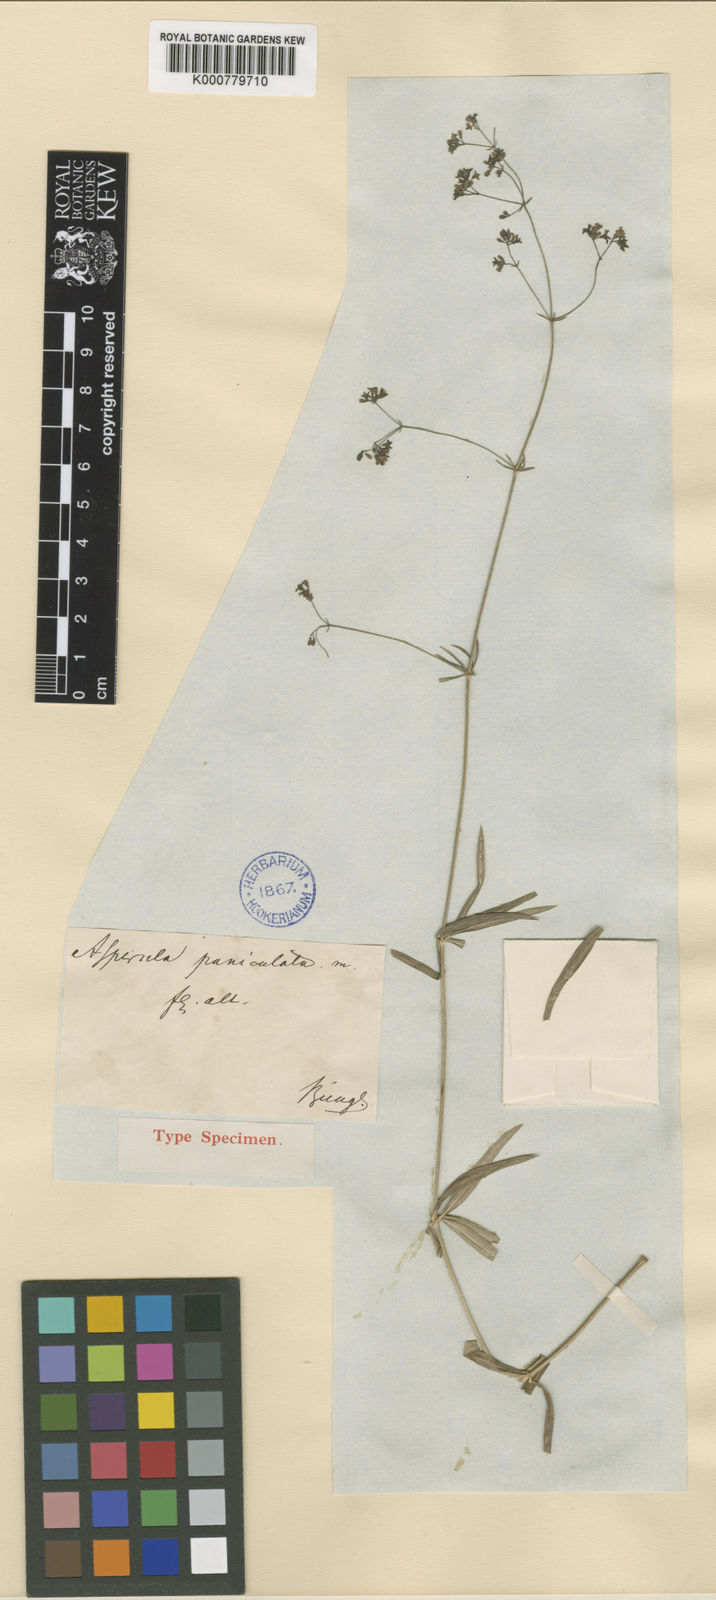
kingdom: Plantae
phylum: Tracheophyta
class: Magnoliopsida
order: Gentianales
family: Rubiaceae
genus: Galium
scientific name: Galium paniculatum
